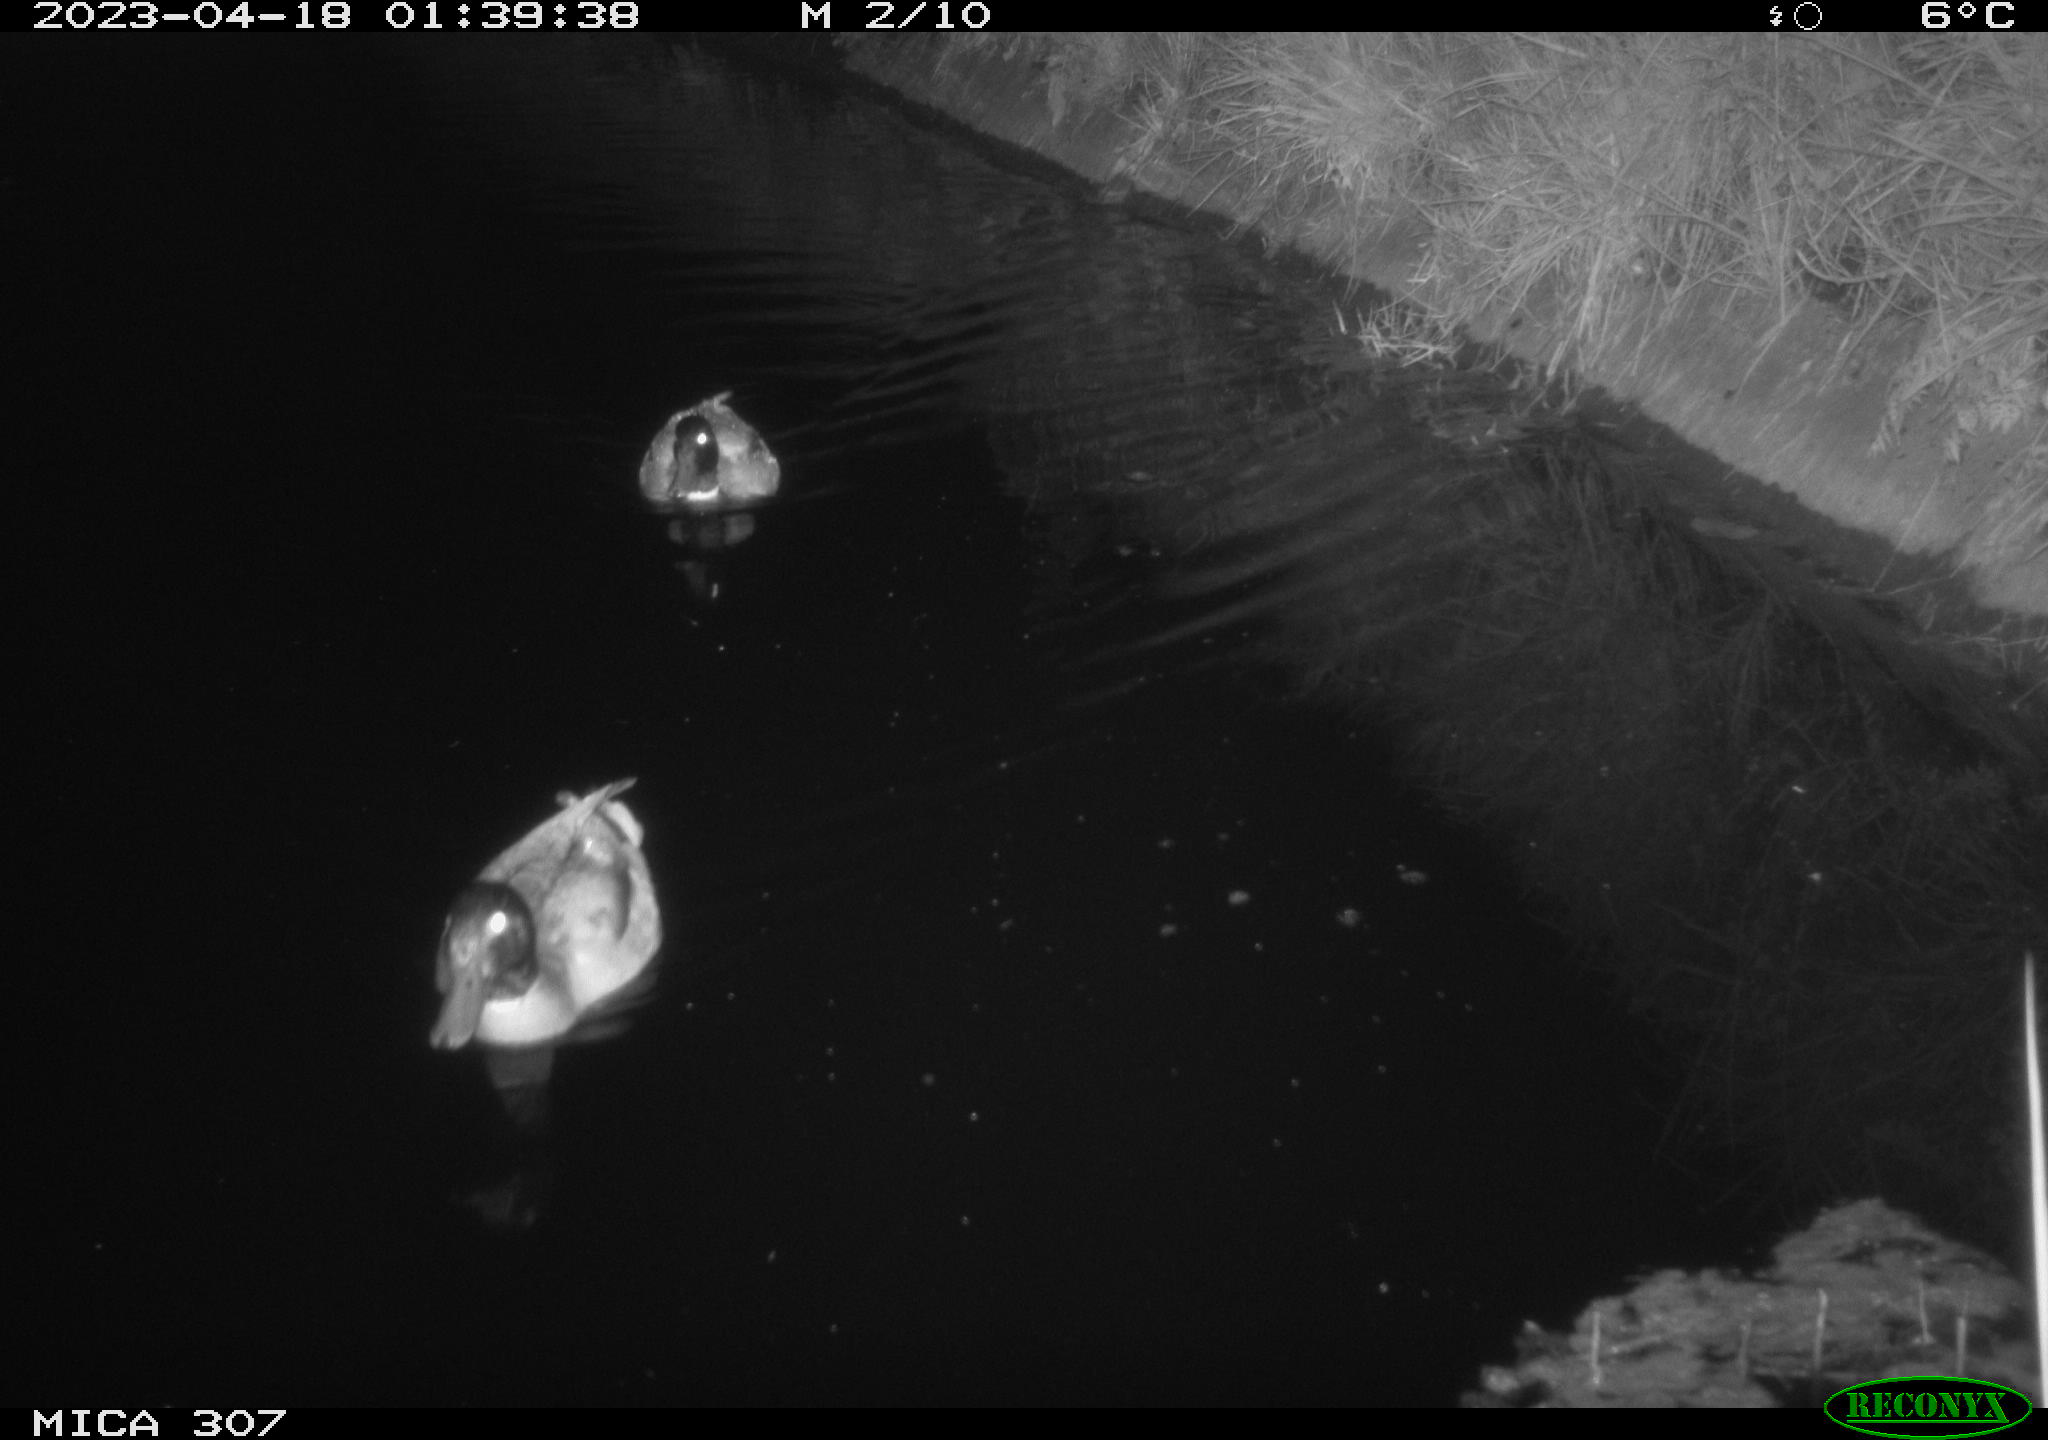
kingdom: Animalia
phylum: Chordata
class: Aves
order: Anseriformes
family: Anatidae
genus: Anas
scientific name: Anas
